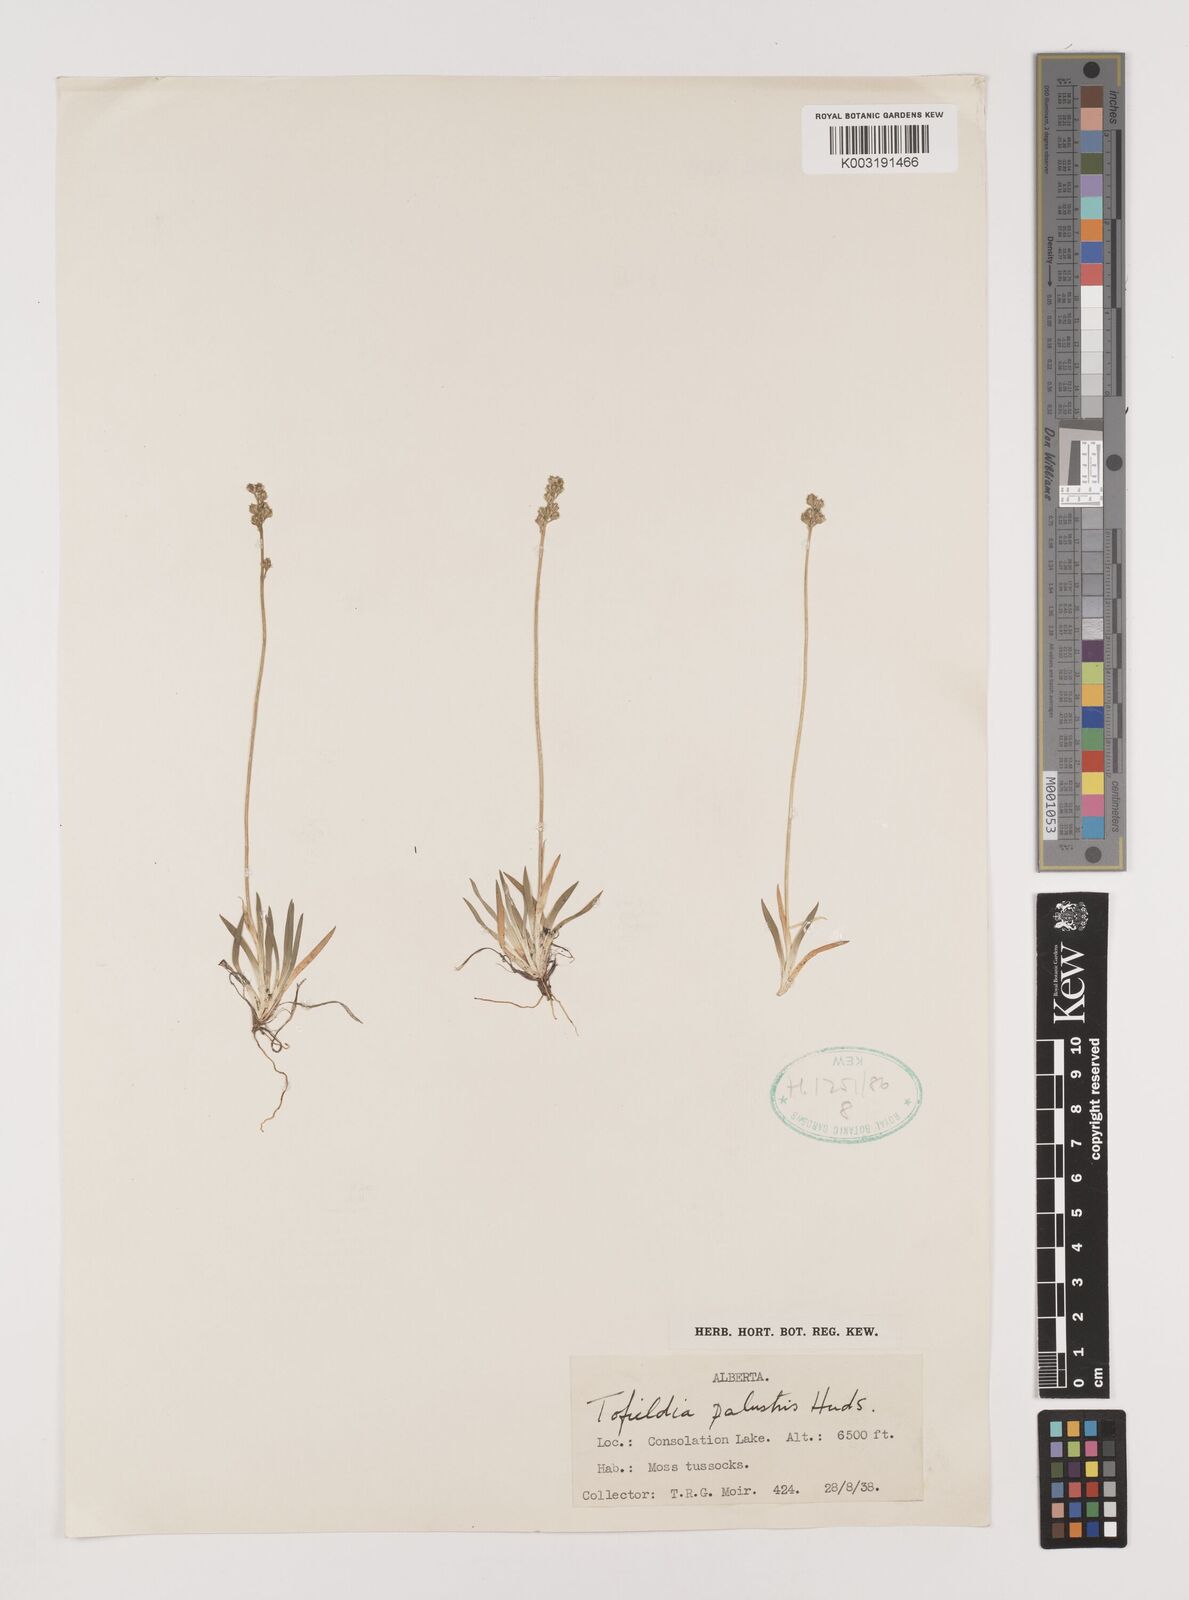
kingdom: Plantae
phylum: Tracheophyta
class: Liliopsida
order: Alismatales
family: Tofieldiaceae
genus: Tofieldia
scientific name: Tofieldia calyculata
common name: German-asphodel
